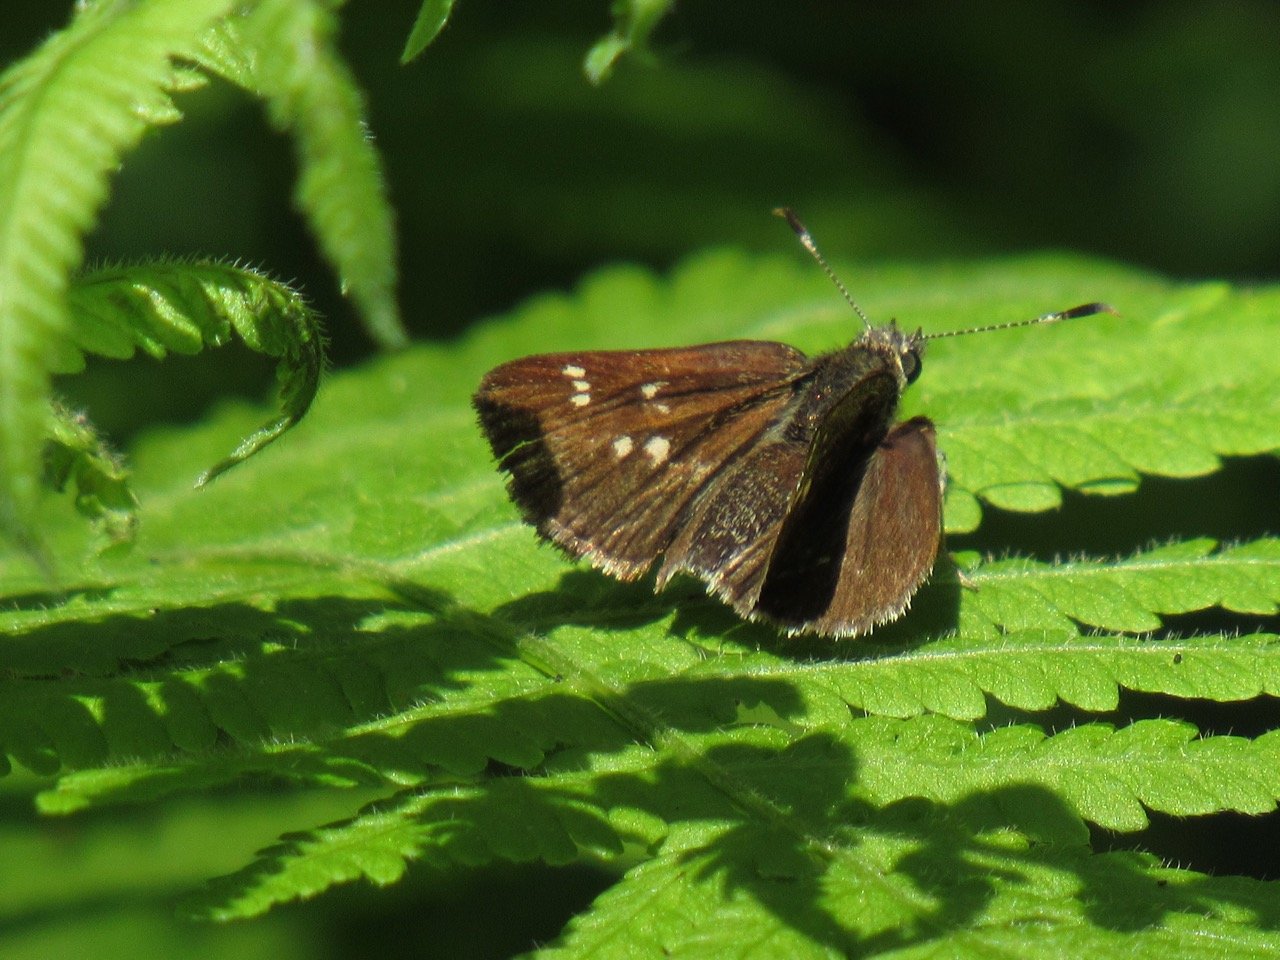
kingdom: Animalia
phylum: Arthropoda
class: Insecta
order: Lepidoptera
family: Hesperiidae
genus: Mastor
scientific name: Mastor hegon
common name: Pepper and Salt Skipper
